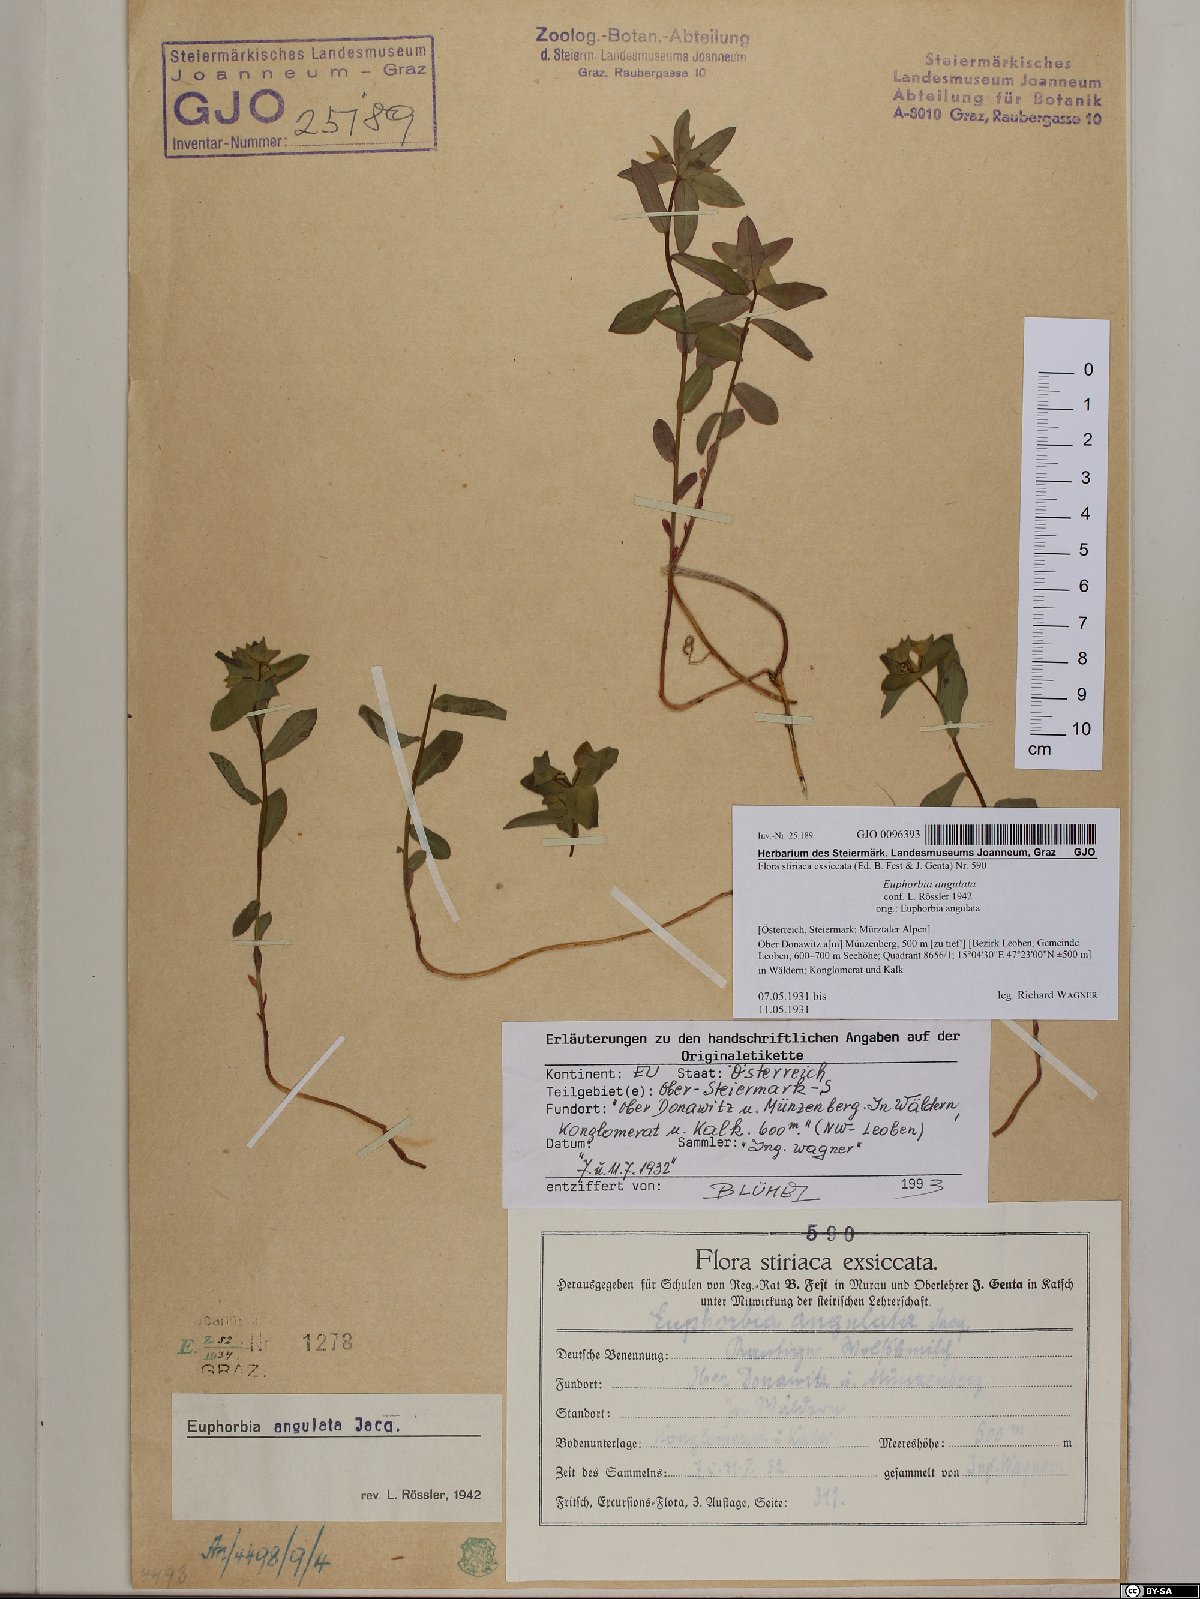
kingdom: Plantae
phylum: Tracheophyta
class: Magnoliopsida
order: Malpighiales
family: Euphorbiaceae
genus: Euphorbia
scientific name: Euphorbia angulata
